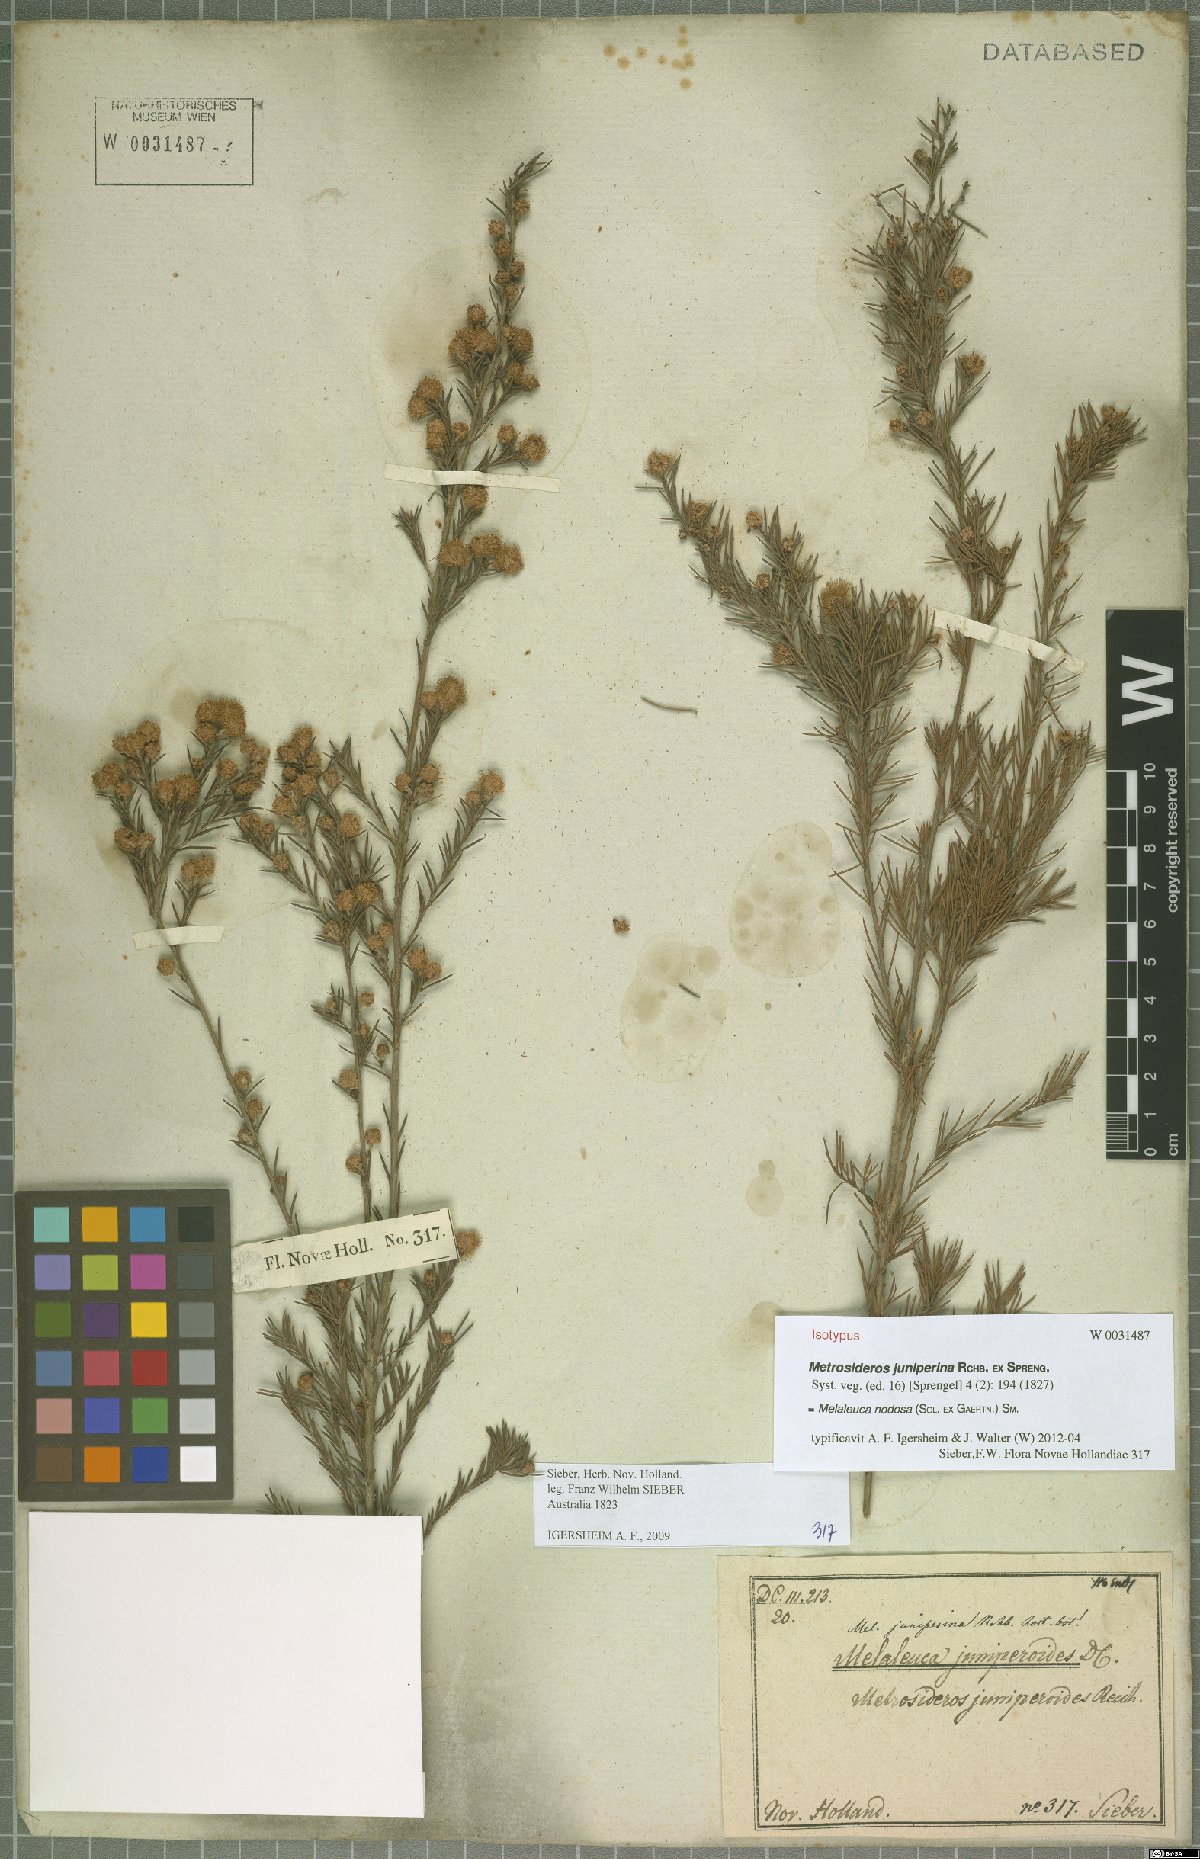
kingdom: Plantae
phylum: Tracheophyta
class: Magnoliopsida
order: Myrtales
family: Myrtaceae
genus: Melaleuca
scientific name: Melaleuca nodosa
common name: Prickly-leaf paperbark
